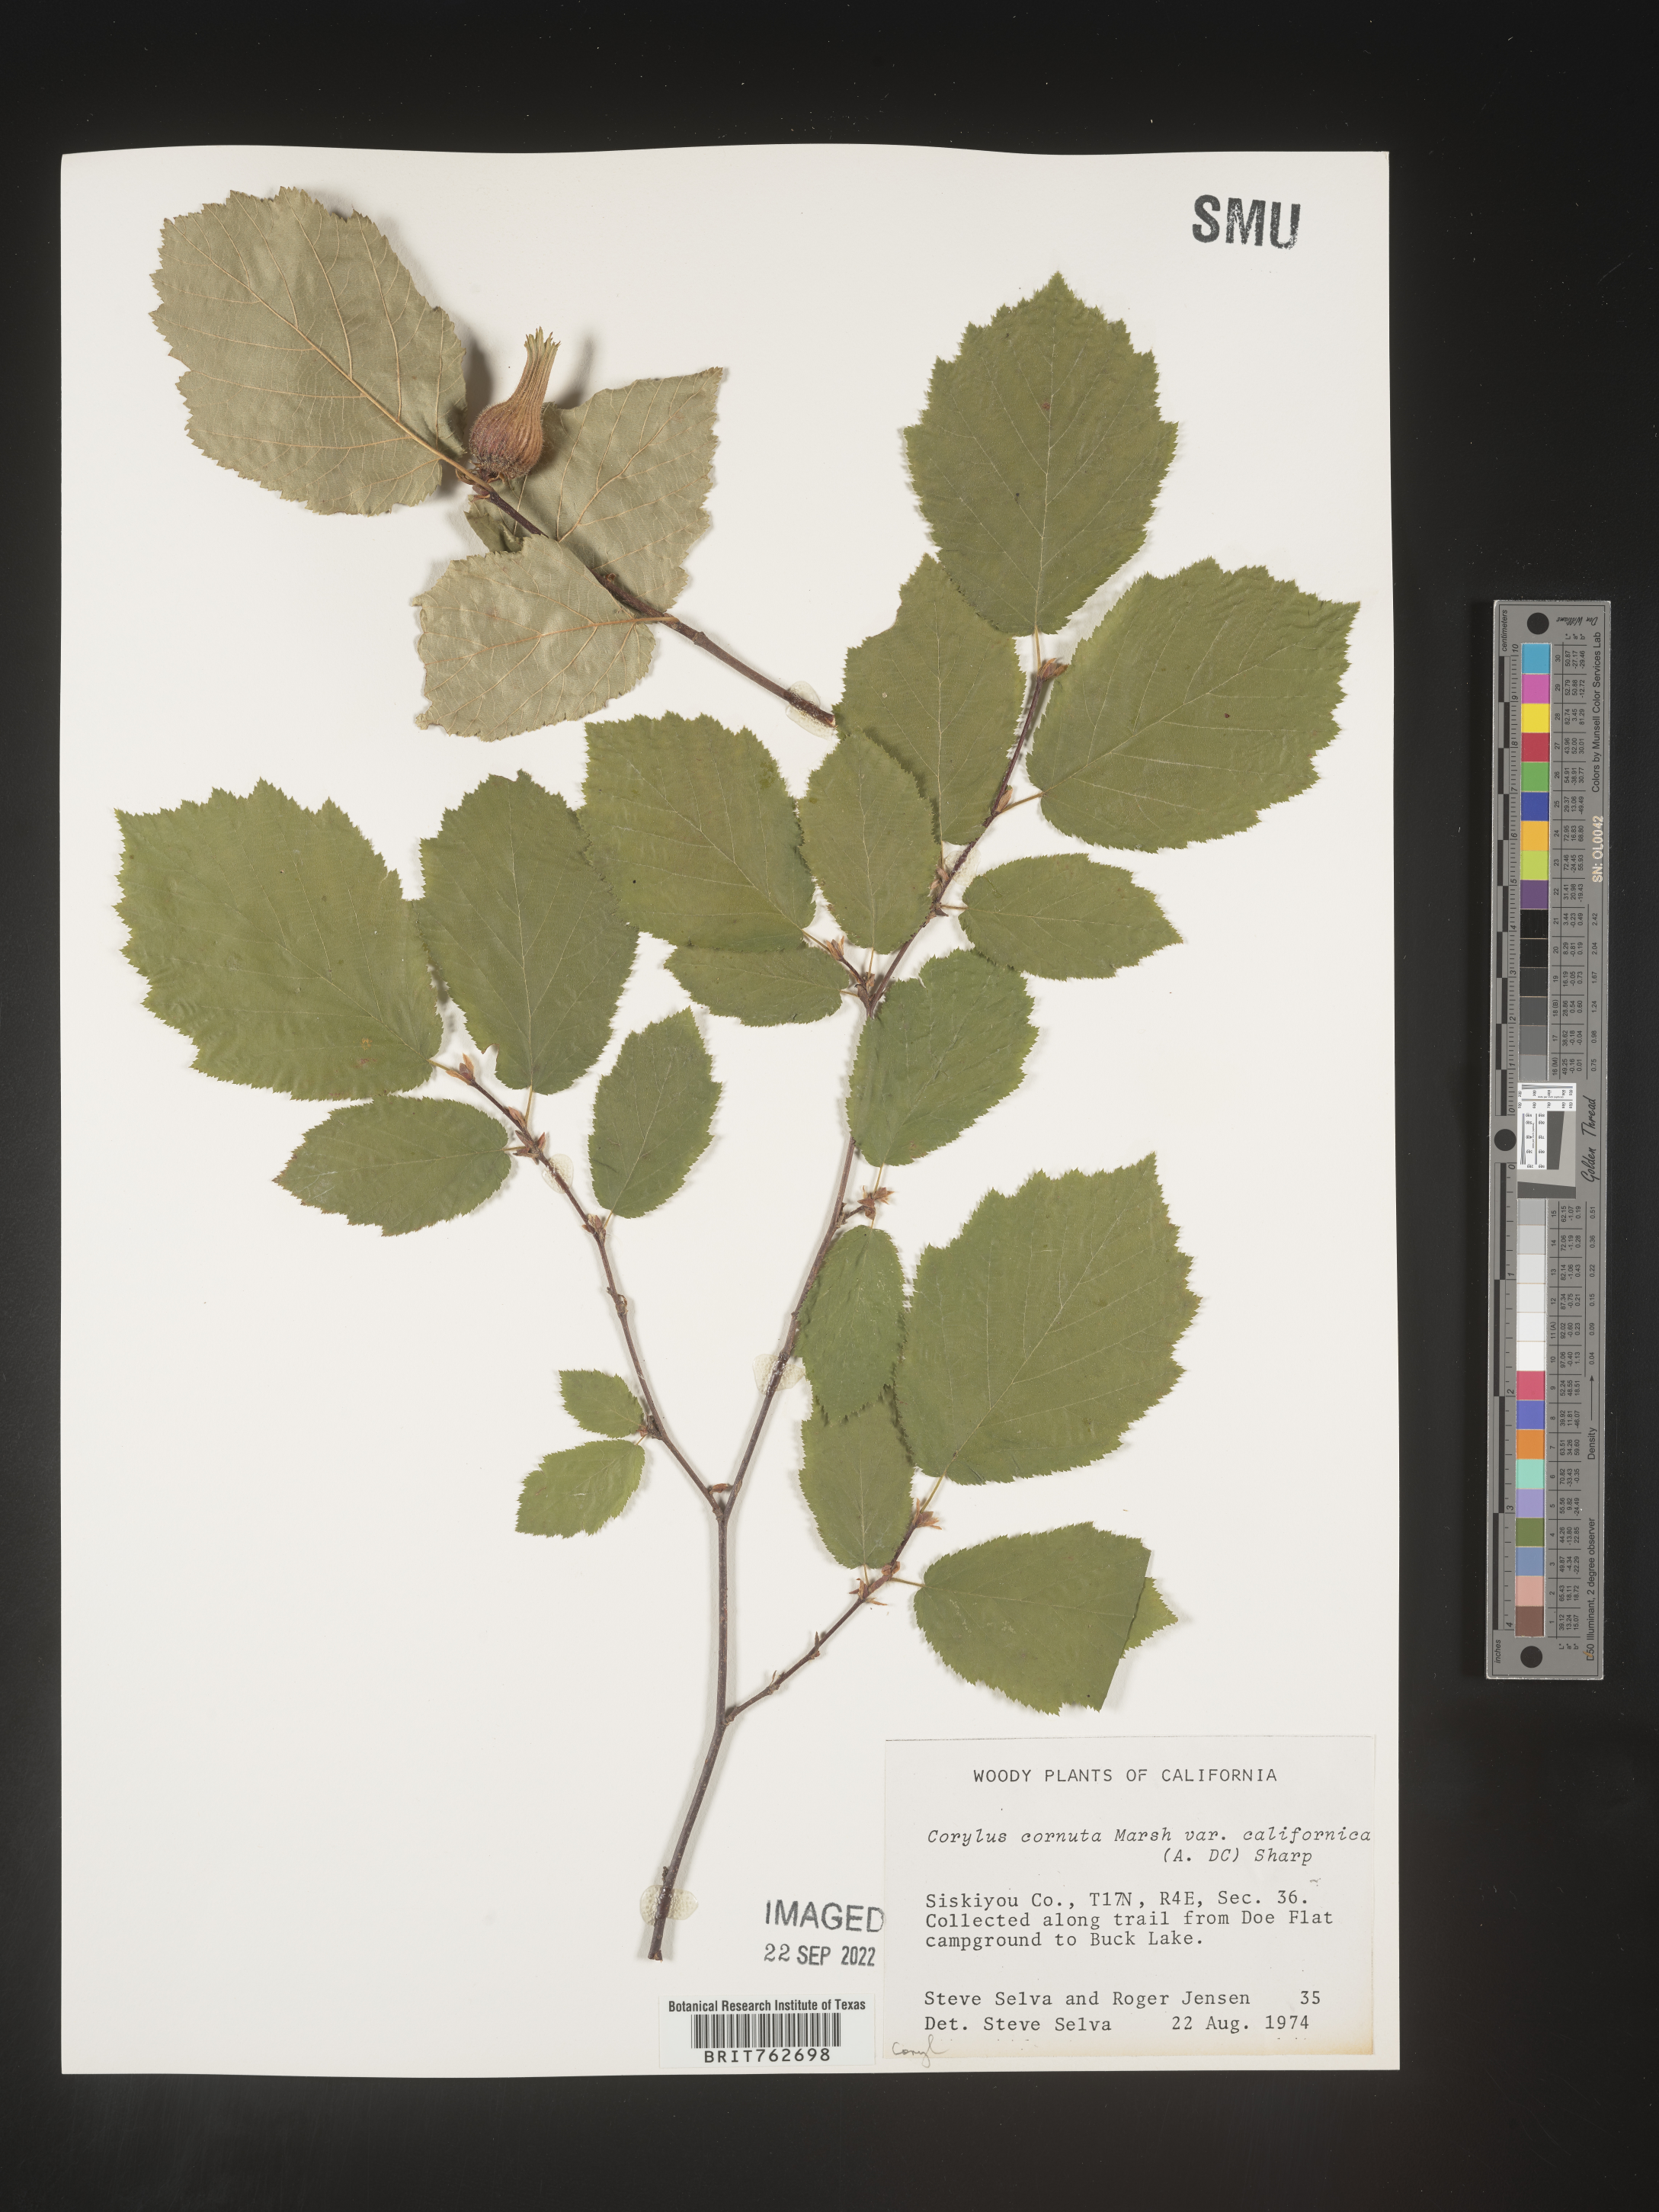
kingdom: Plantae
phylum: Tracheophyta
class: Magnoliopsida
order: Fagales
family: Betulaceae
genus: Corylus
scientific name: Corylus cornuta
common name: Beaked hazel
